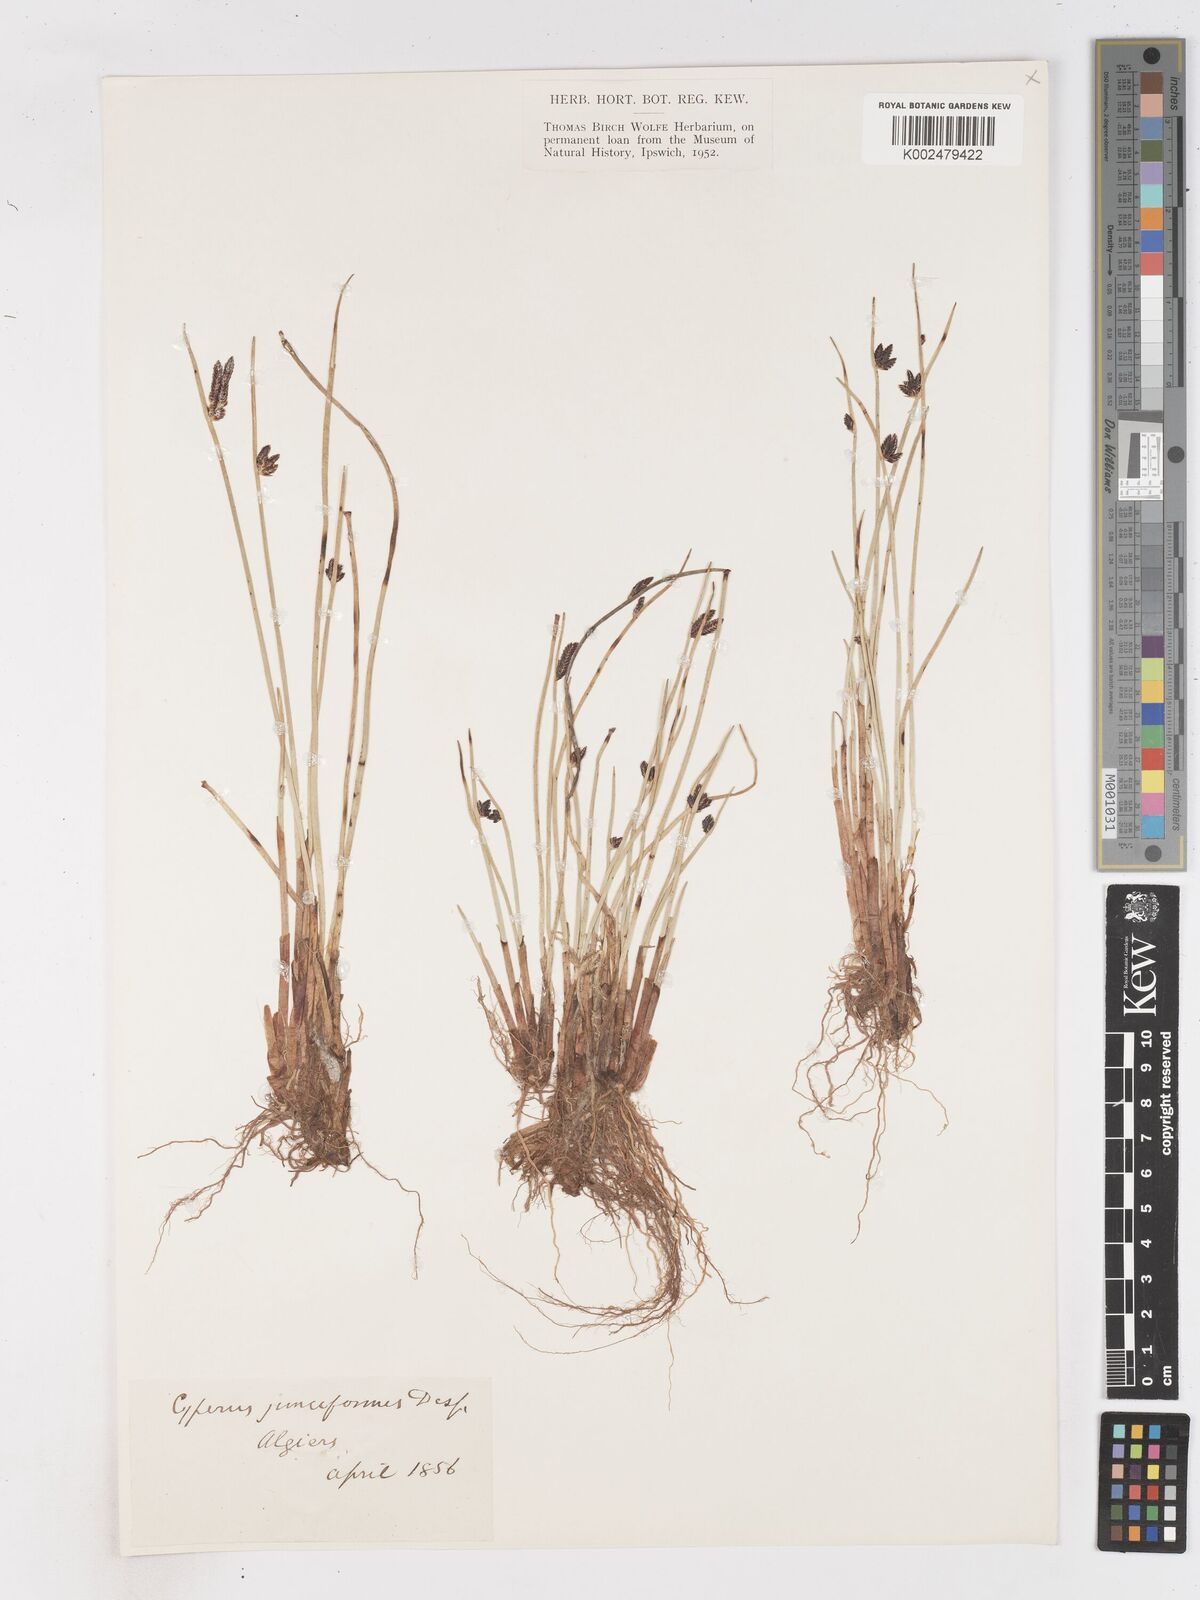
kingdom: Plantae
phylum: Tracheophyta
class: Liliopsida
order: Poales
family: Cyperaceae
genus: Cyperus
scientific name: Cyperus laevigatus
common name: Smooth flat sedge
